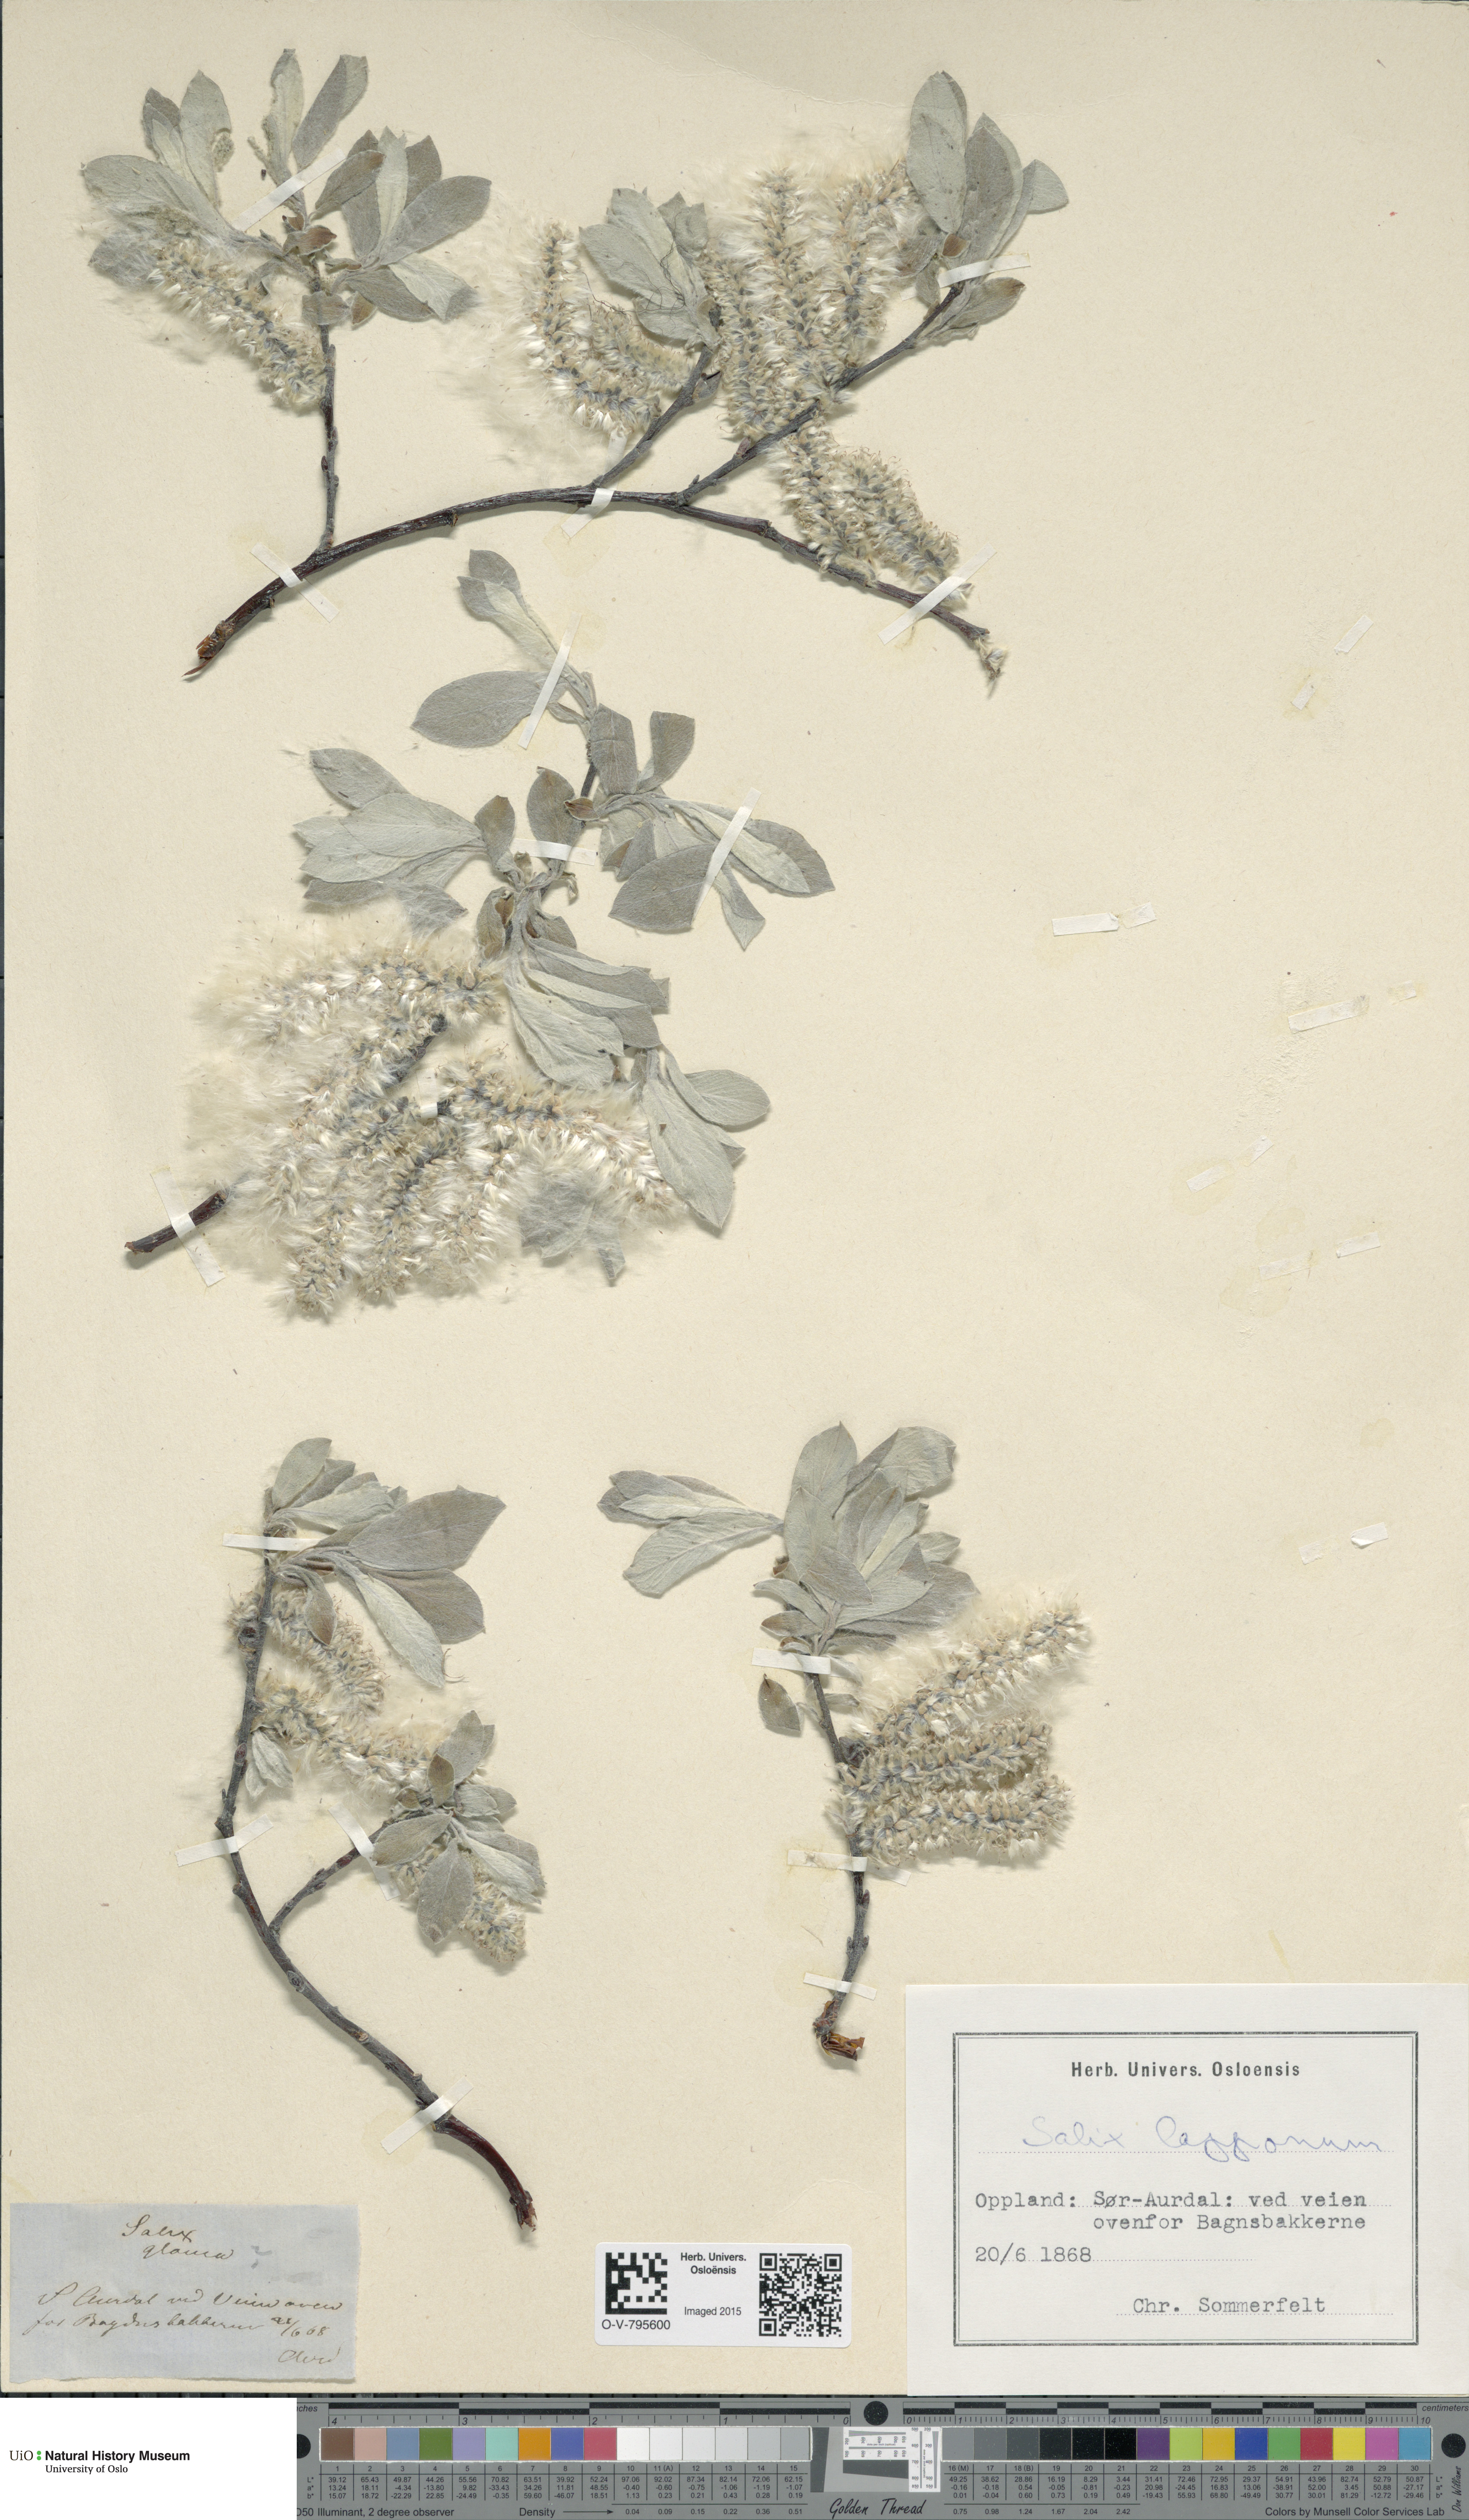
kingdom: Plantae
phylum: Tracheophyta
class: Magnoliopsida
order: Malpighiales
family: Salicaceae
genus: Salix
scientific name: Salix lapponum
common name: Downy willow
